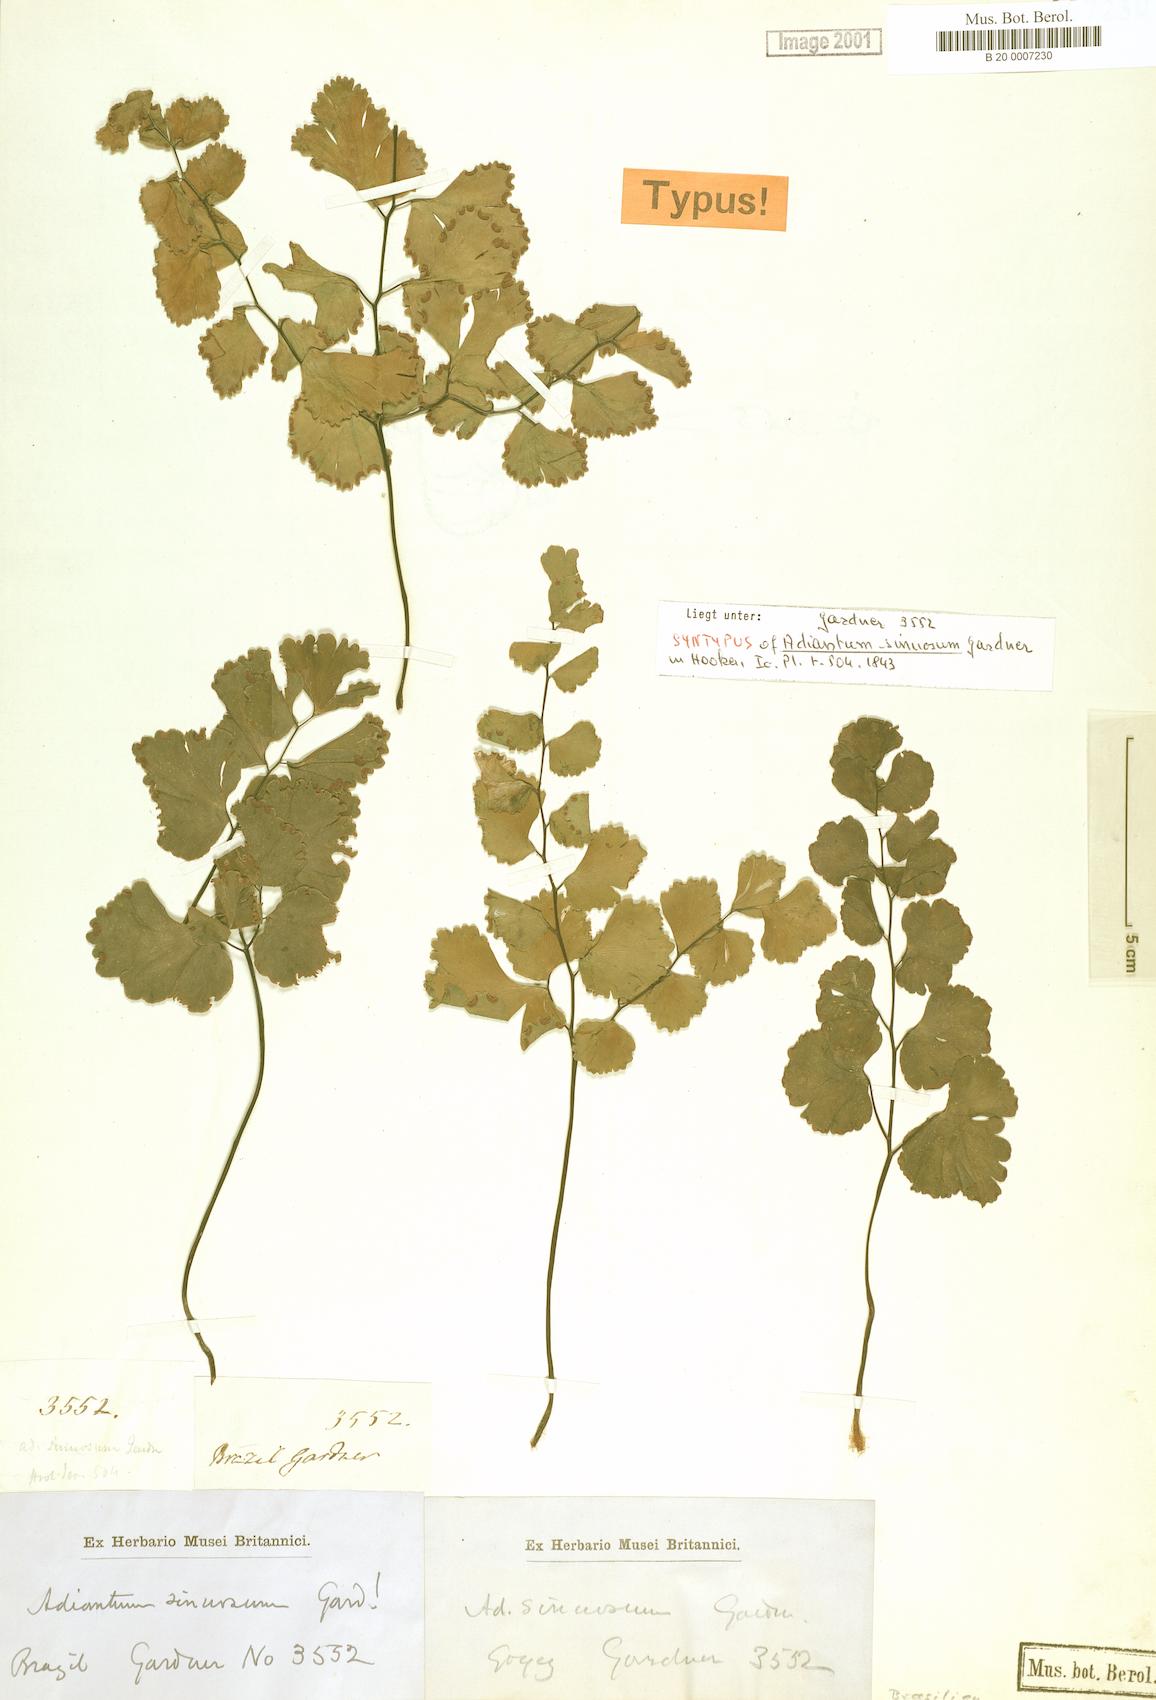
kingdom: Plantae
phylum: Tracheophyta
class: Polypodiopsida
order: Polypodiales
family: Pteridaceae
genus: Adiantum
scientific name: Adiantum sinuosum
